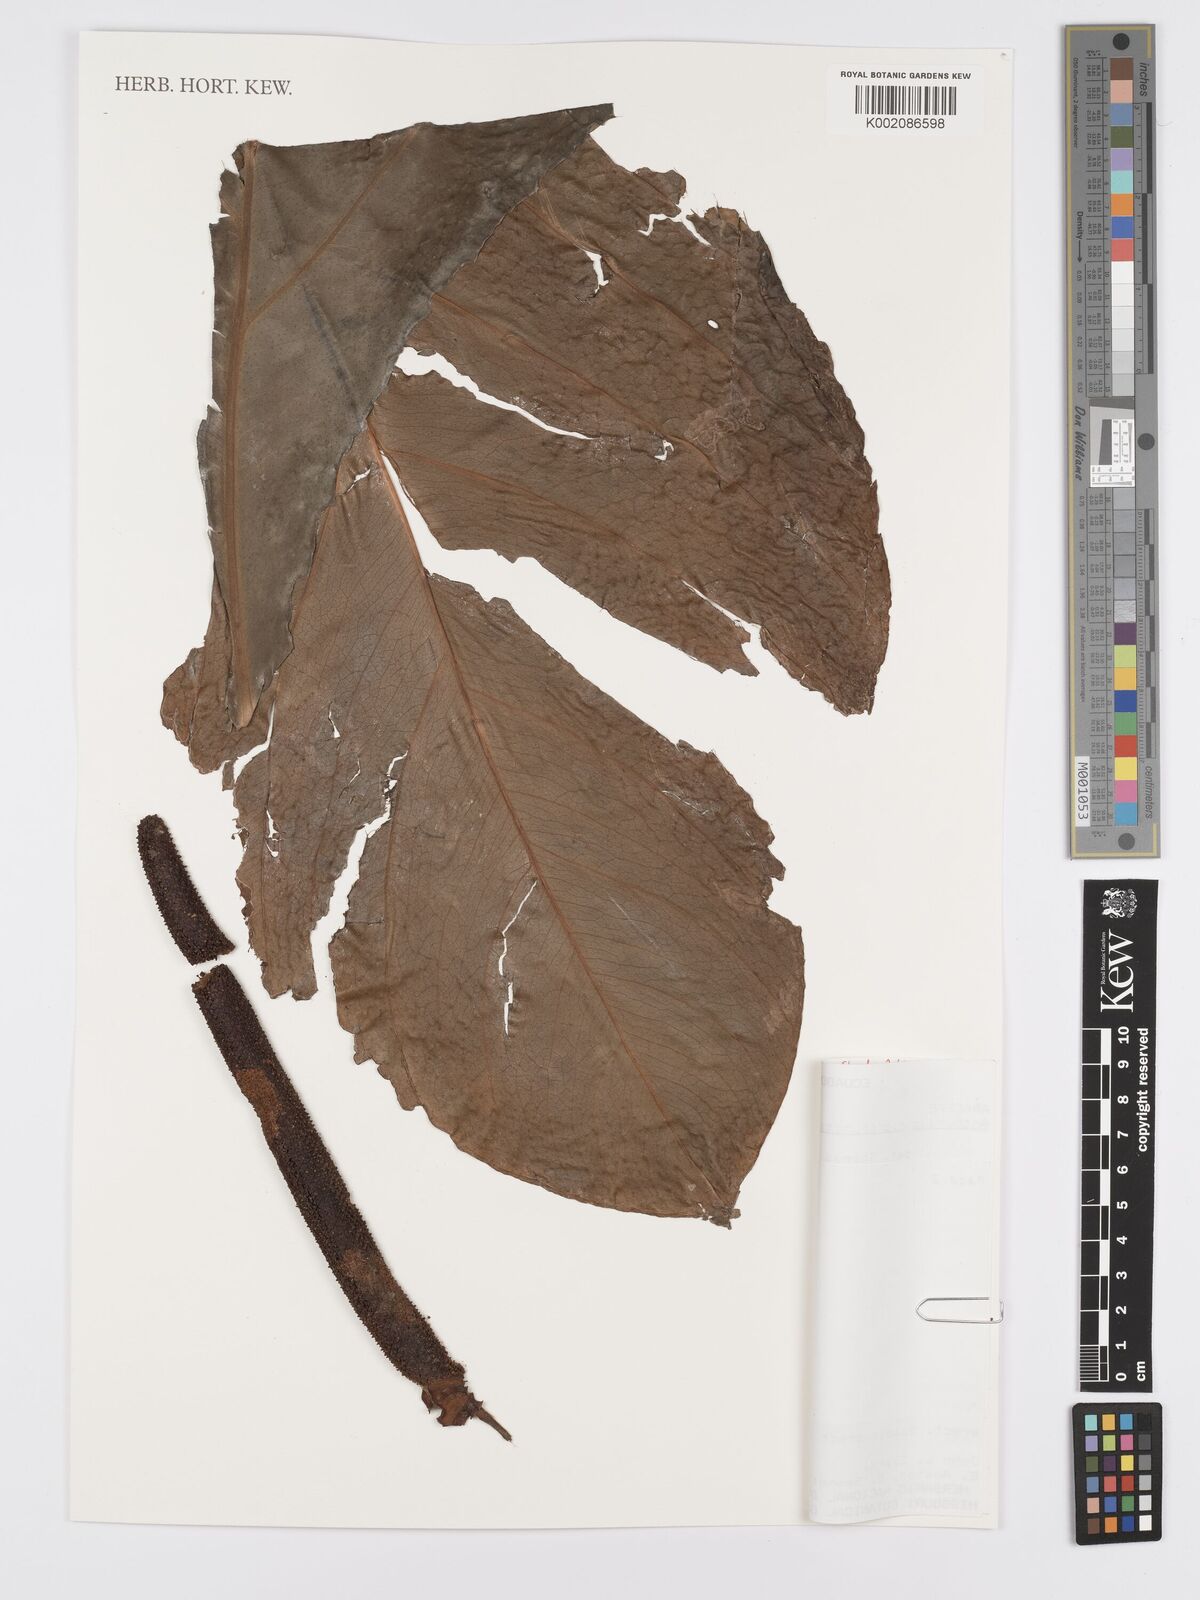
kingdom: Plantae
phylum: Tracheophyta
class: Liliopsida
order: Alismatales
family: Araceae
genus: Anthurium
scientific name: Anthurium nigropunctatum
